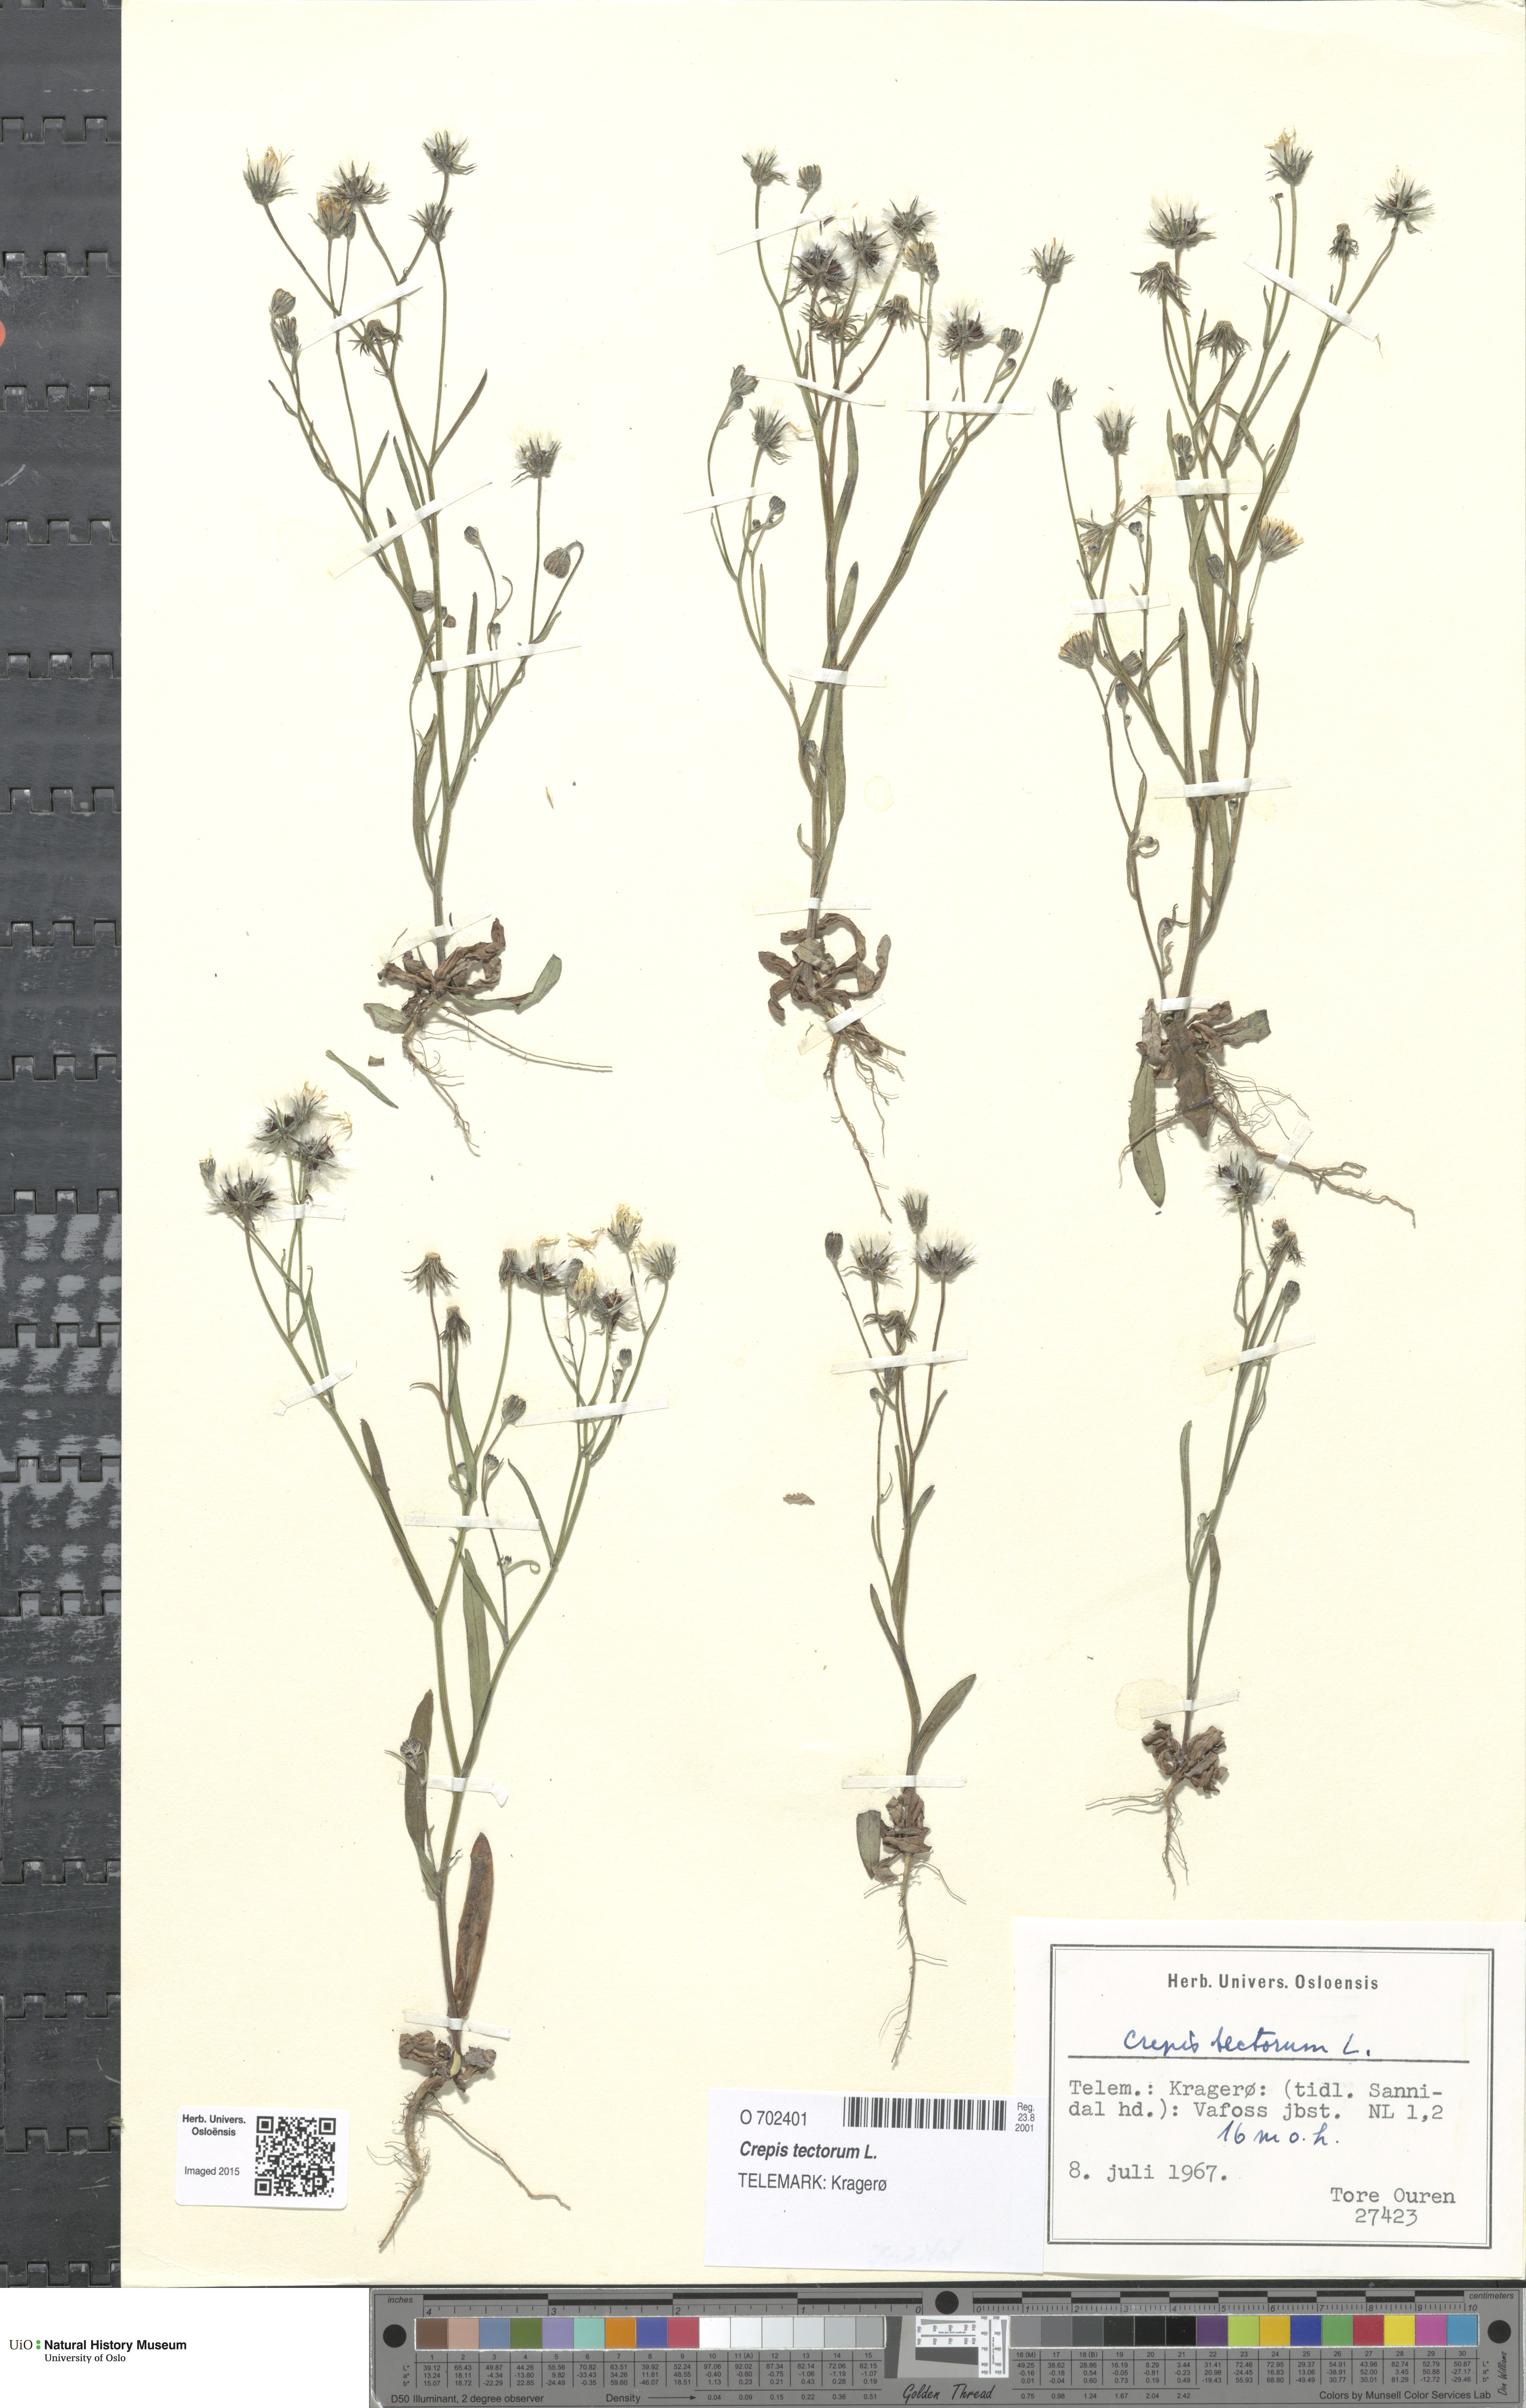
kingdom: Plantae
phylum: Tracheophyta
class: Magnoliopsida
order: Asterales
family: Asteraceae
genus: Crepis
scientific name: Crepis tectorum
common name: Narrow-leaved hawk's-beard
